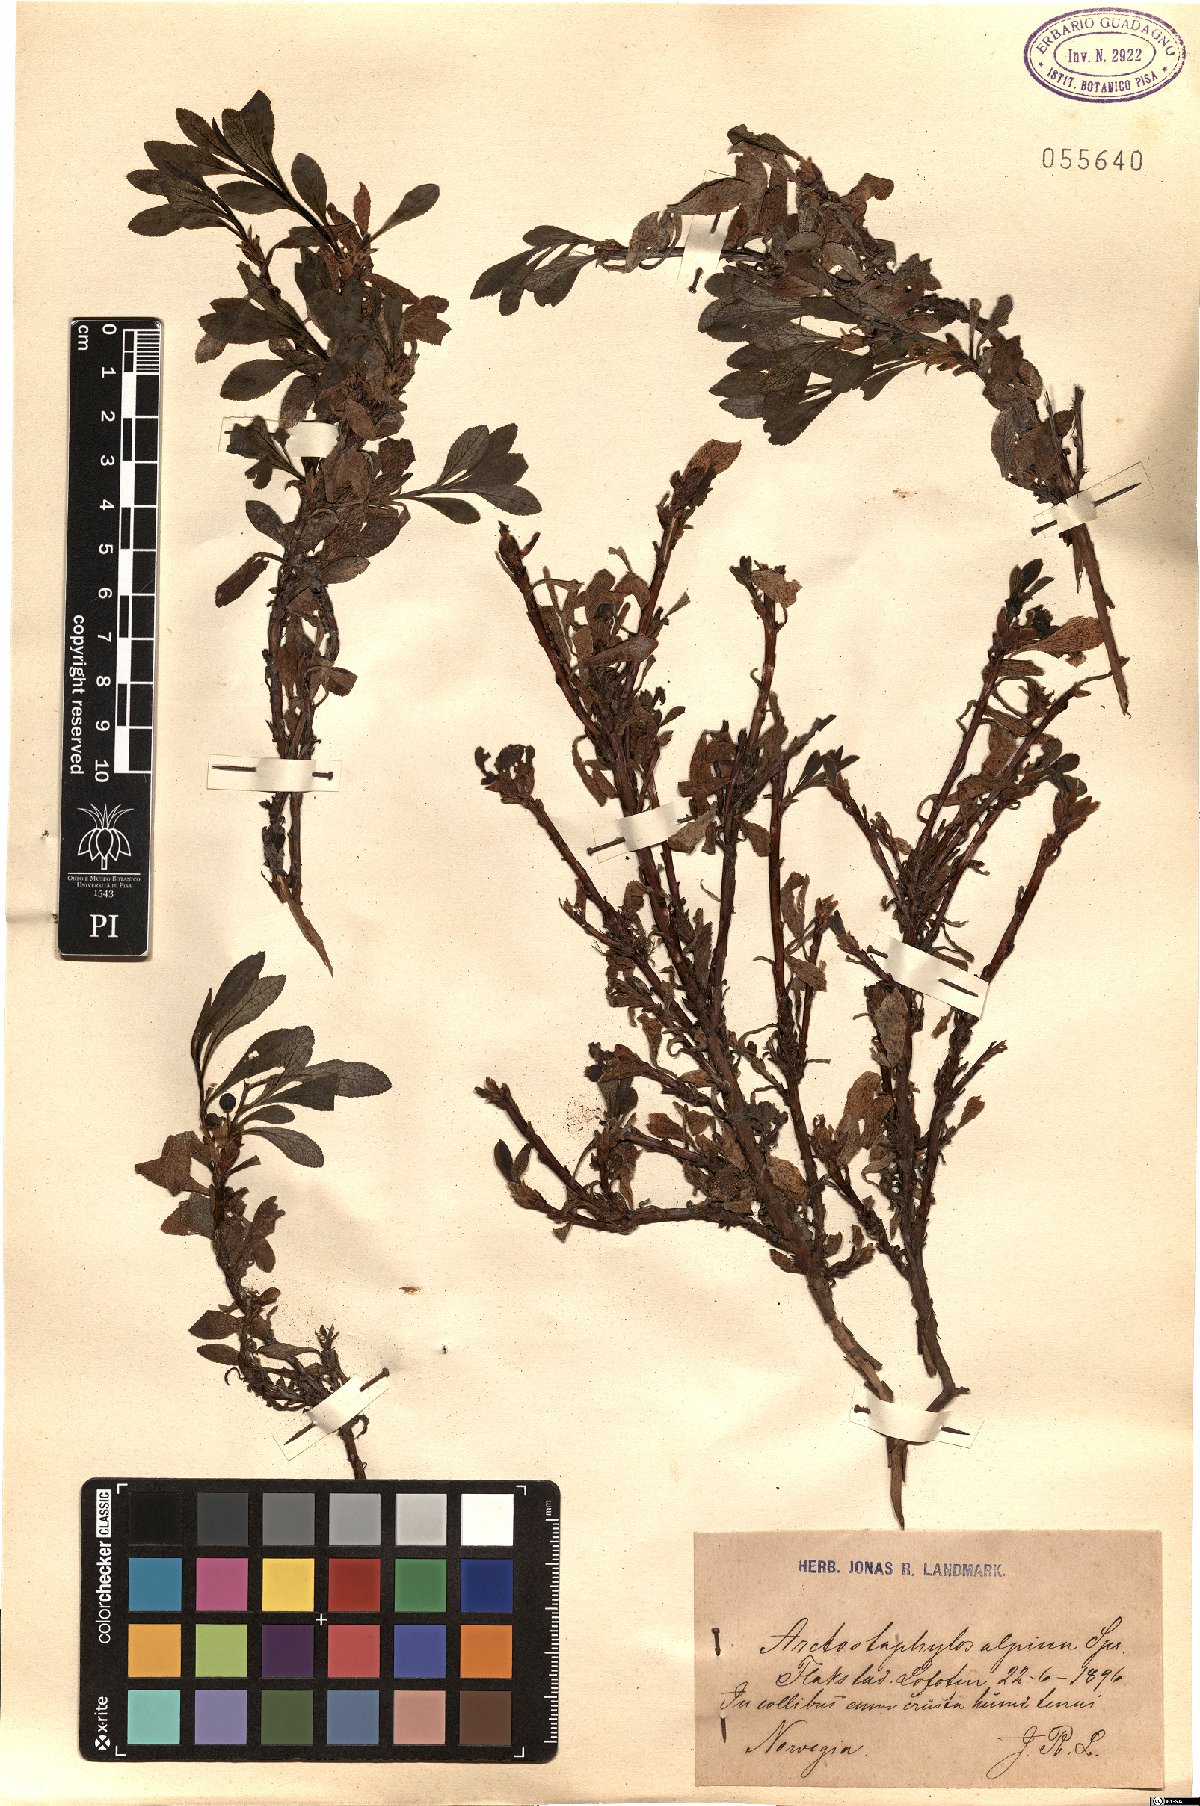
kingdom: Plantae
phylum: Tracheophyta
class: Magnoliopsida
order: Ericales
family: Ericaceae
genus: Arctostaphylos
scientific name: Arctostaphylos alpinus
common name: Alpine bearberry
